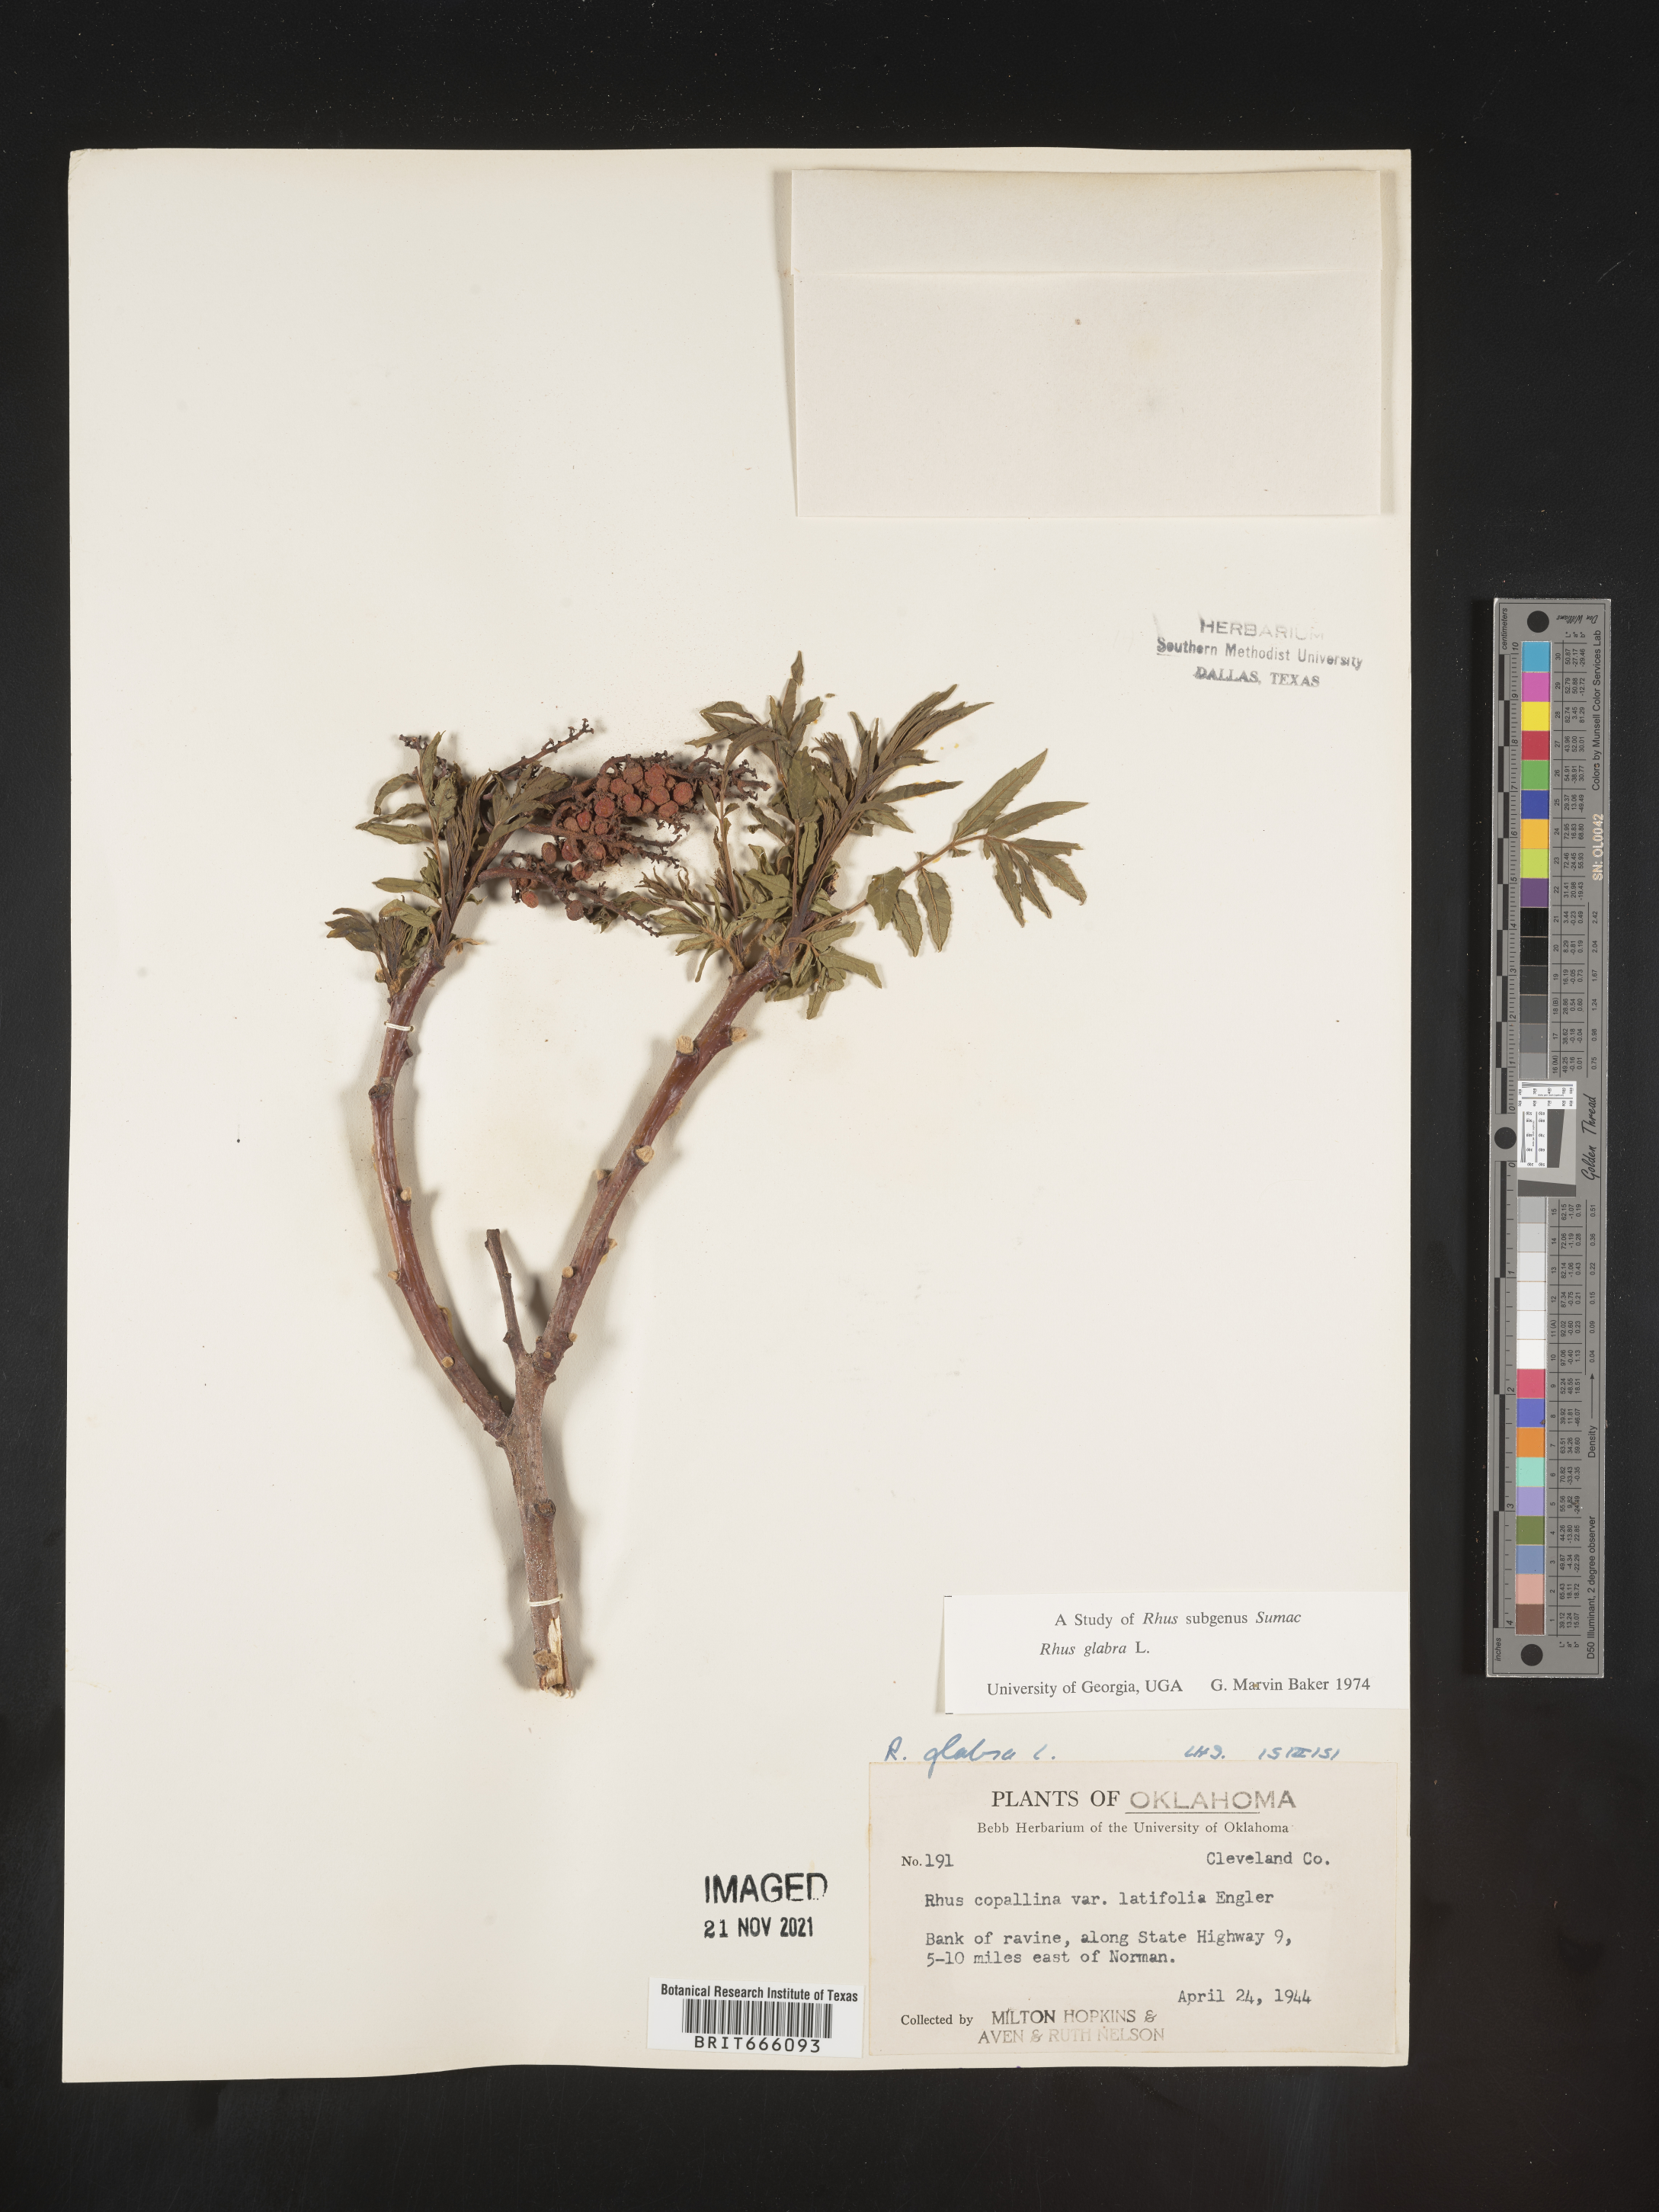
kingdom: Plantae
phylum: Tracheophyta
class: Magnoliopsida
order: Sapindales
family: Anacardiaceae
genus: Rhus
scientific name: Rhus glabra
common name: Scarlet sumac
